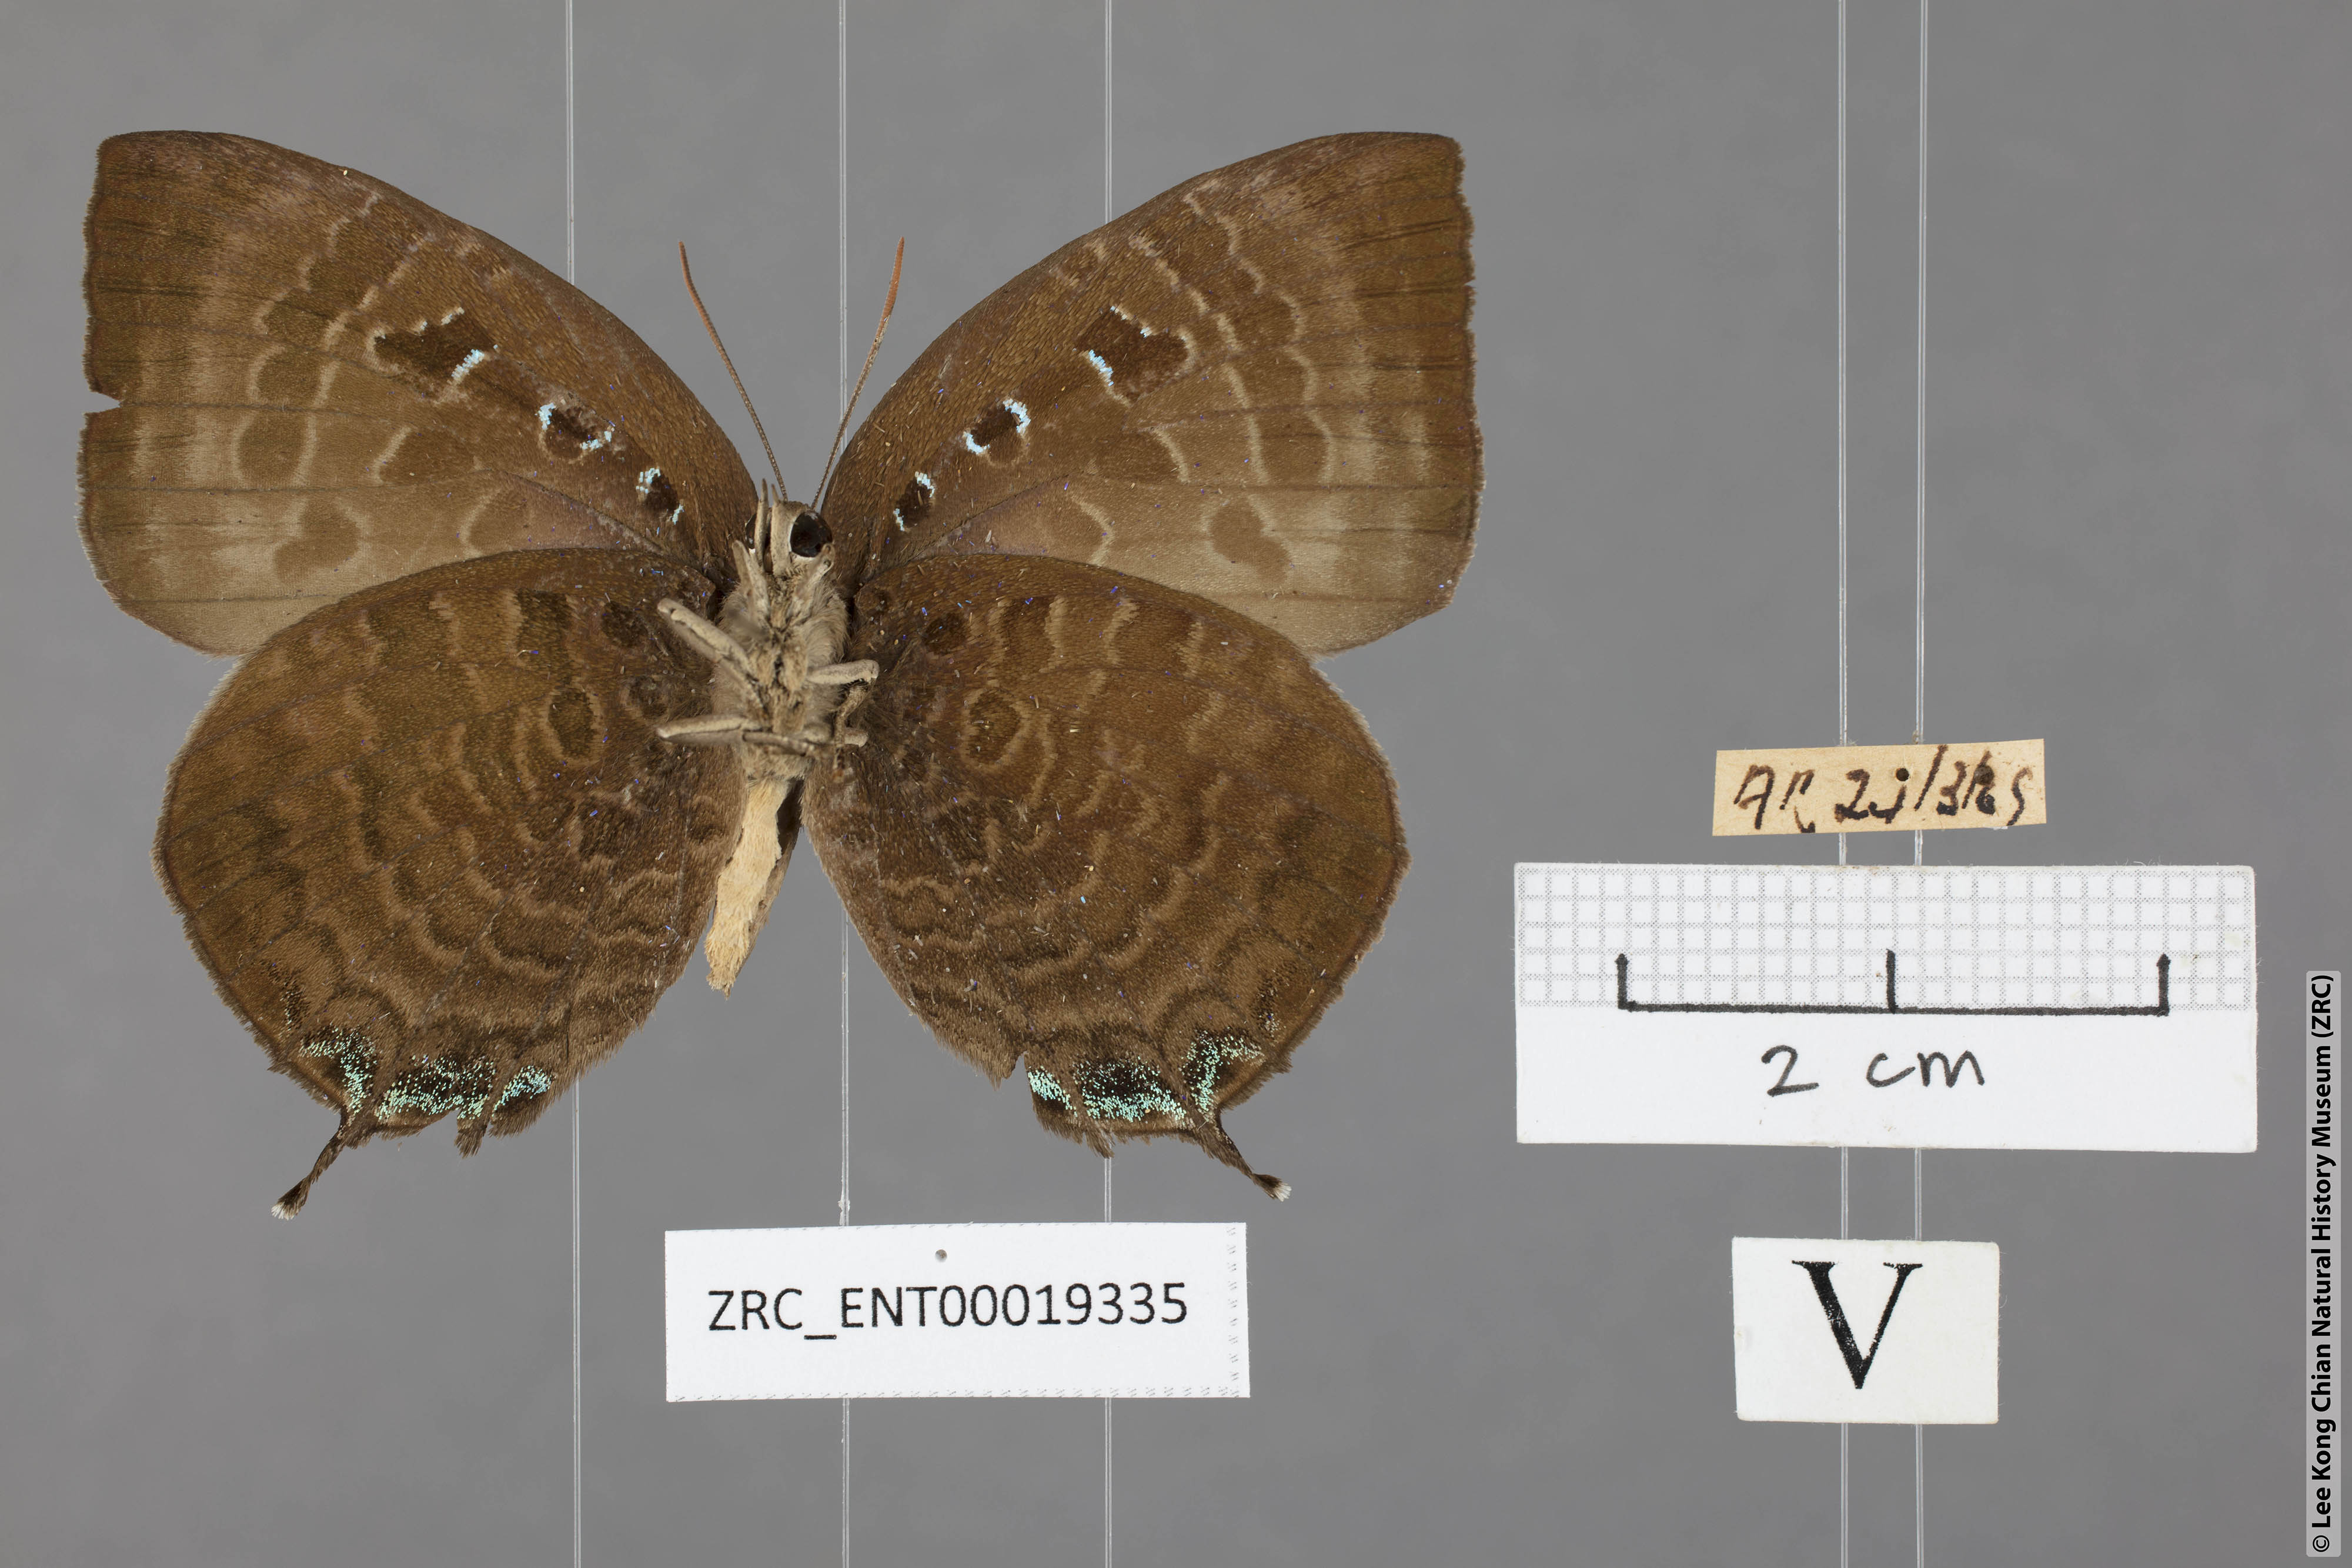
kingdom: Animalia
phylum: Arthropoda
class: Insecta
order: Lepidoptera
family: Lycaenidae
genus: Arhopala
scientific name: Arhopala centaurus
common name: Dull oak-blue
